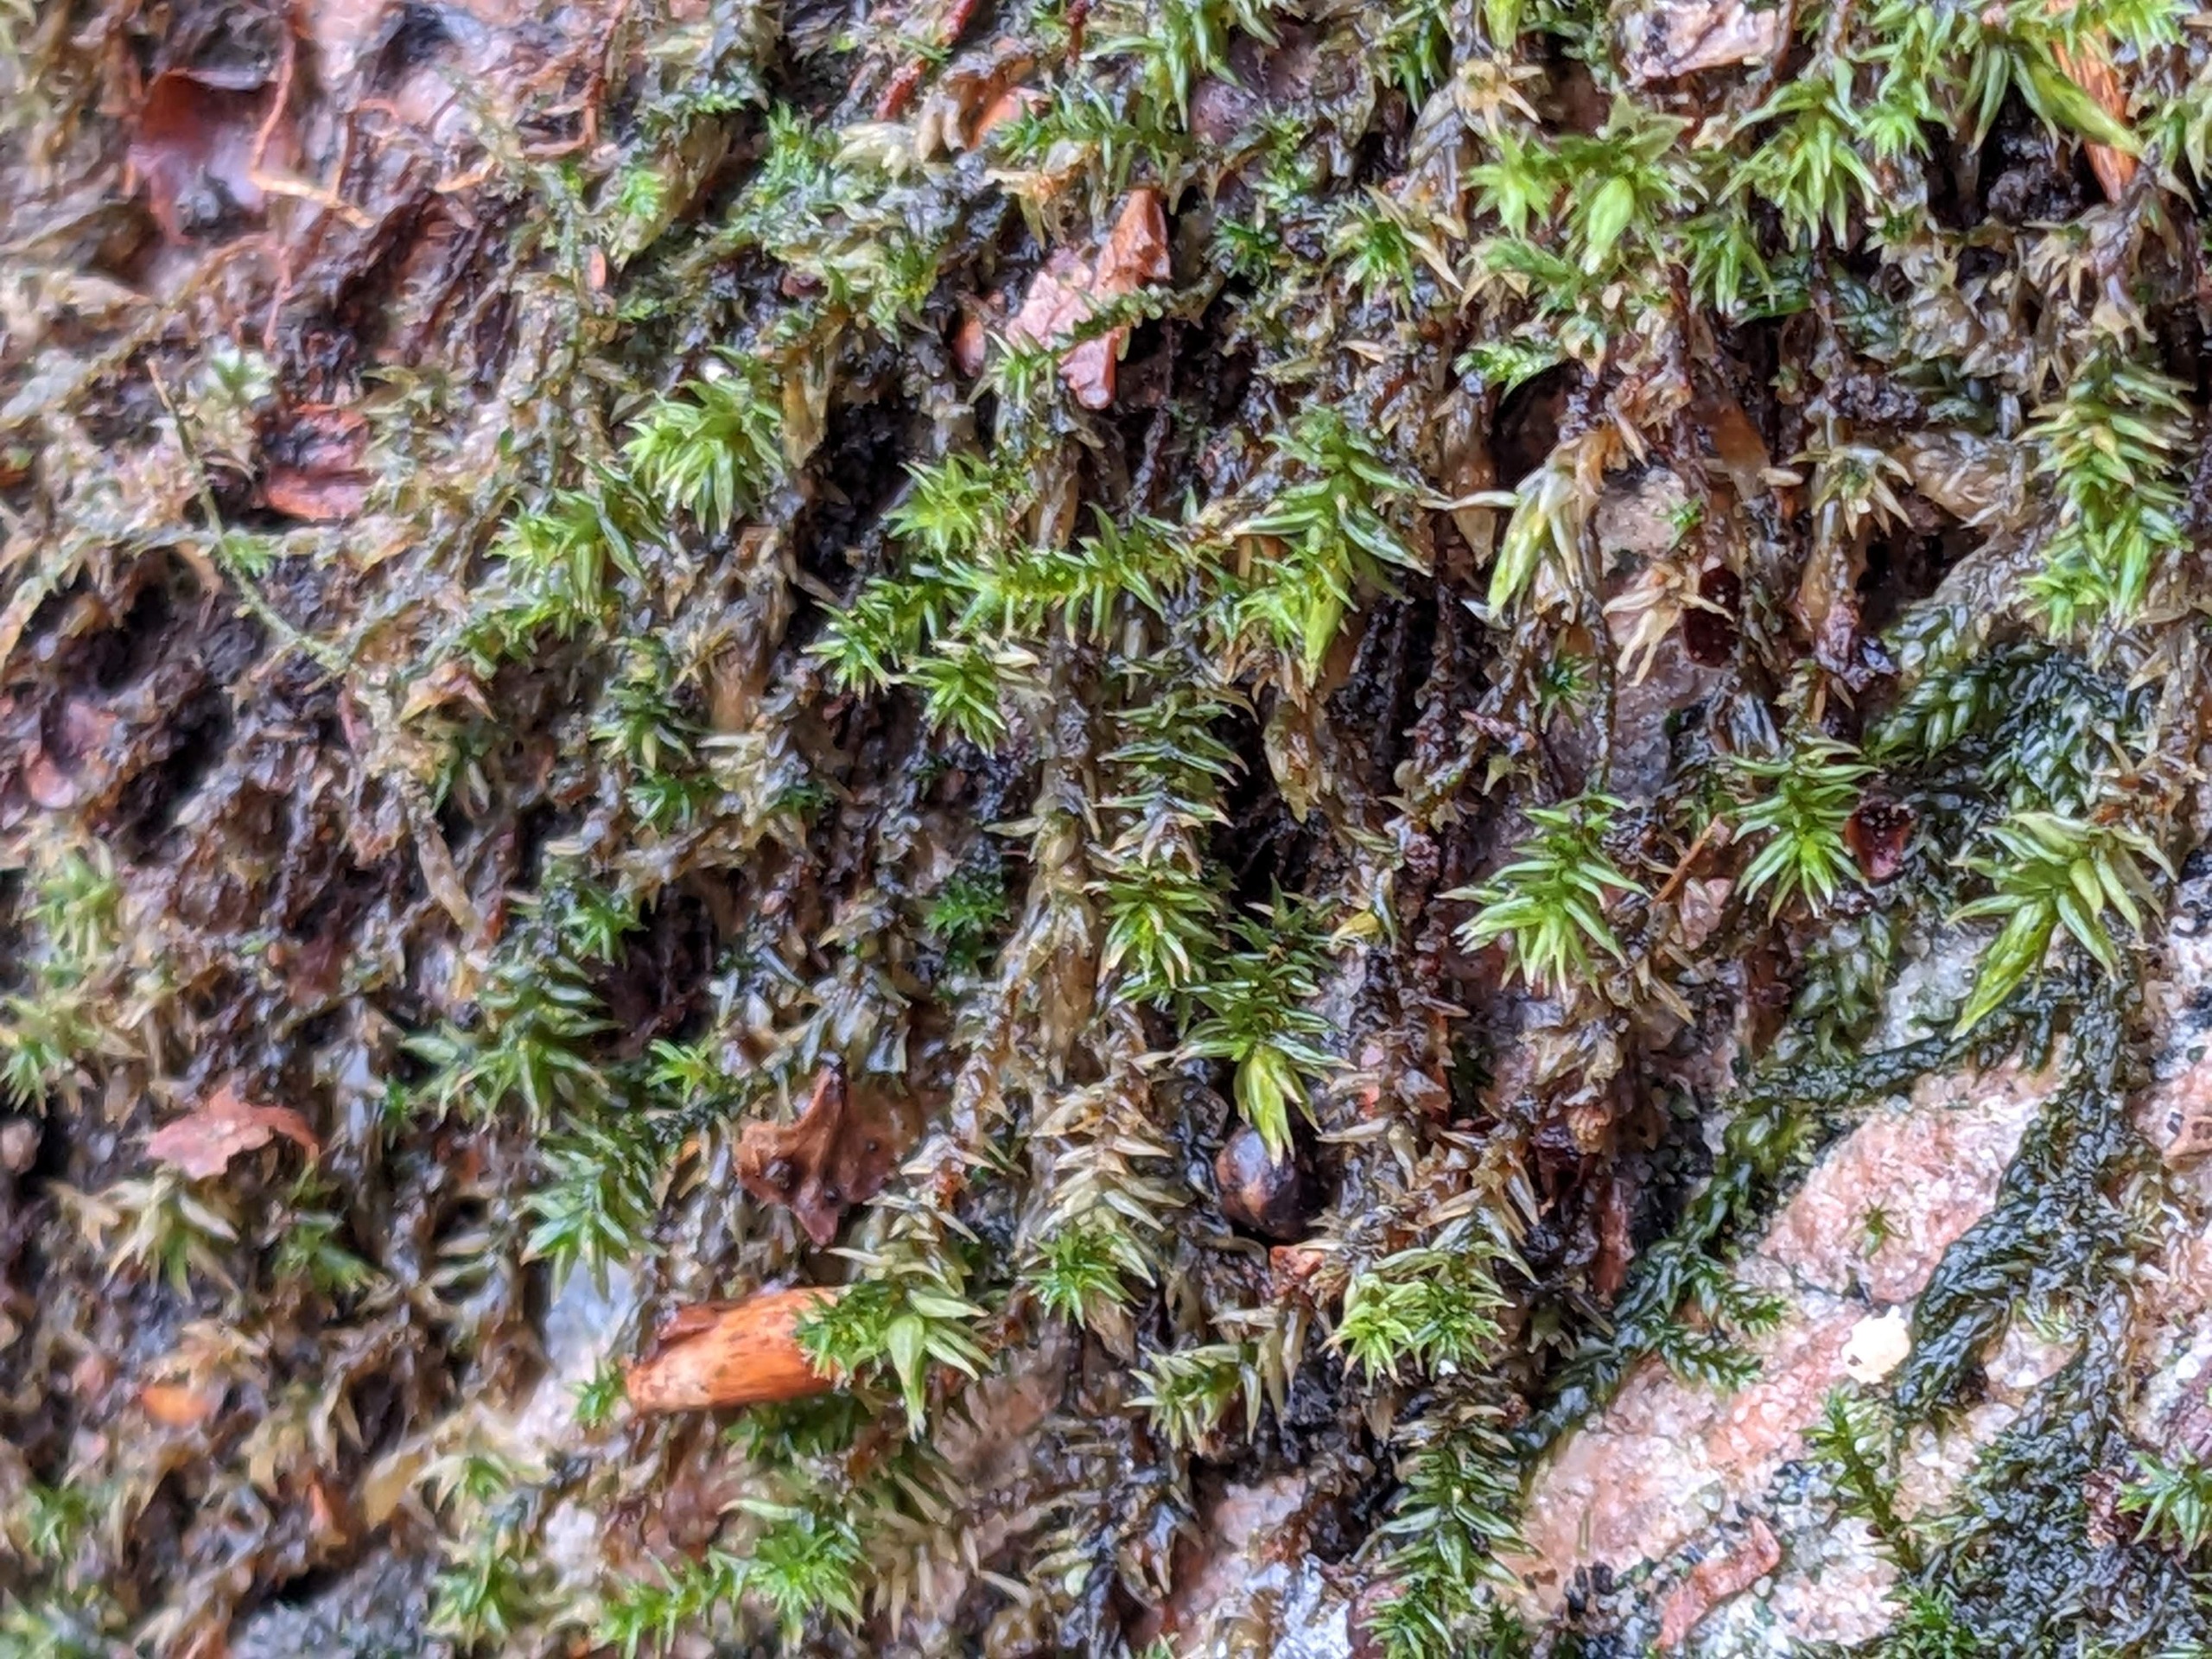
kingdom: Plantae
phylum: Bryophyta
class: Bryopsida
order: Hedwigiales
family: Hedwigiaceae
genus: Hedwigia
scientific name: Hedwigia ciliata
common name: Hvidspidset hedwigia
